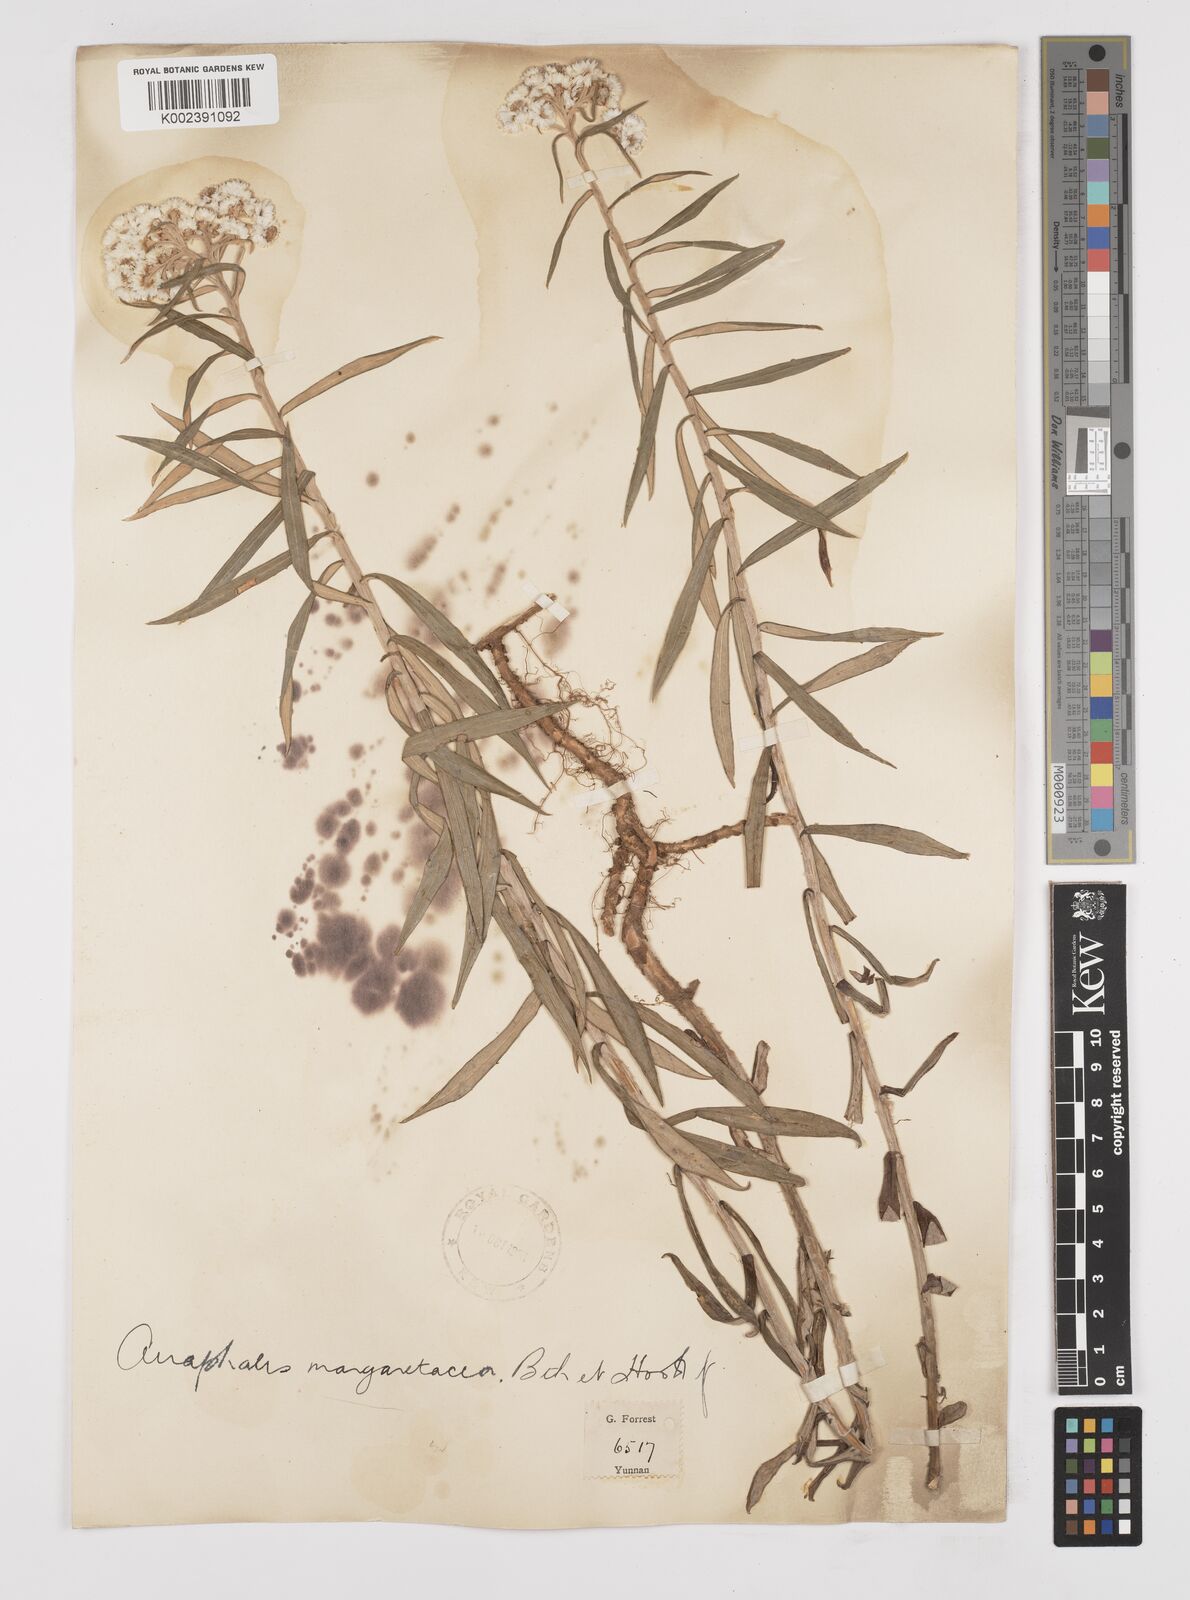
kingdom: Plantae
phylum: Tracheophyta
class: Magnoliopsida
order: Asterales
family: Asteraceae
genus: Anaphalis
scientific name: Anaphalis margaritacea
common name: Pearly everlasting
